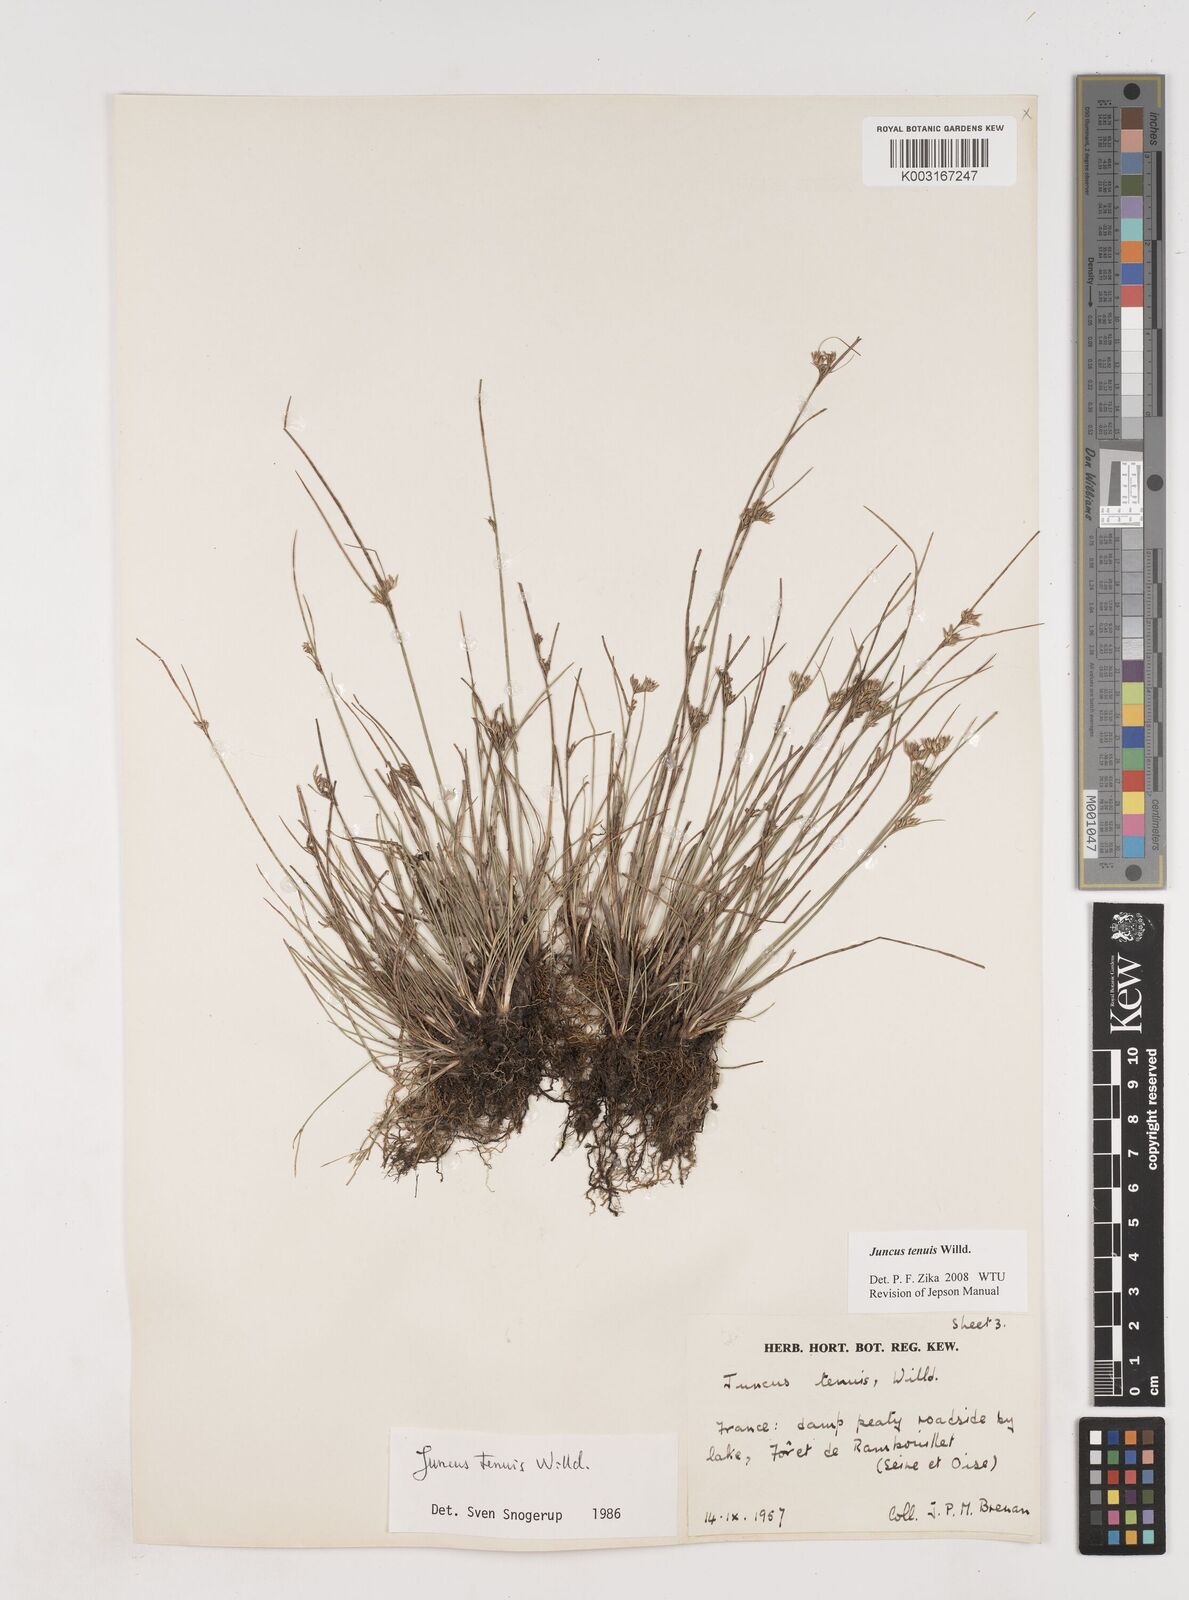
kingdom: Plantae
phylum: Tracheophyta
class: Liliopsida
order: Poales
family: Juncaceae
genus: Juncus
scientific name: Juncus tenuis
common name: Slender rush
